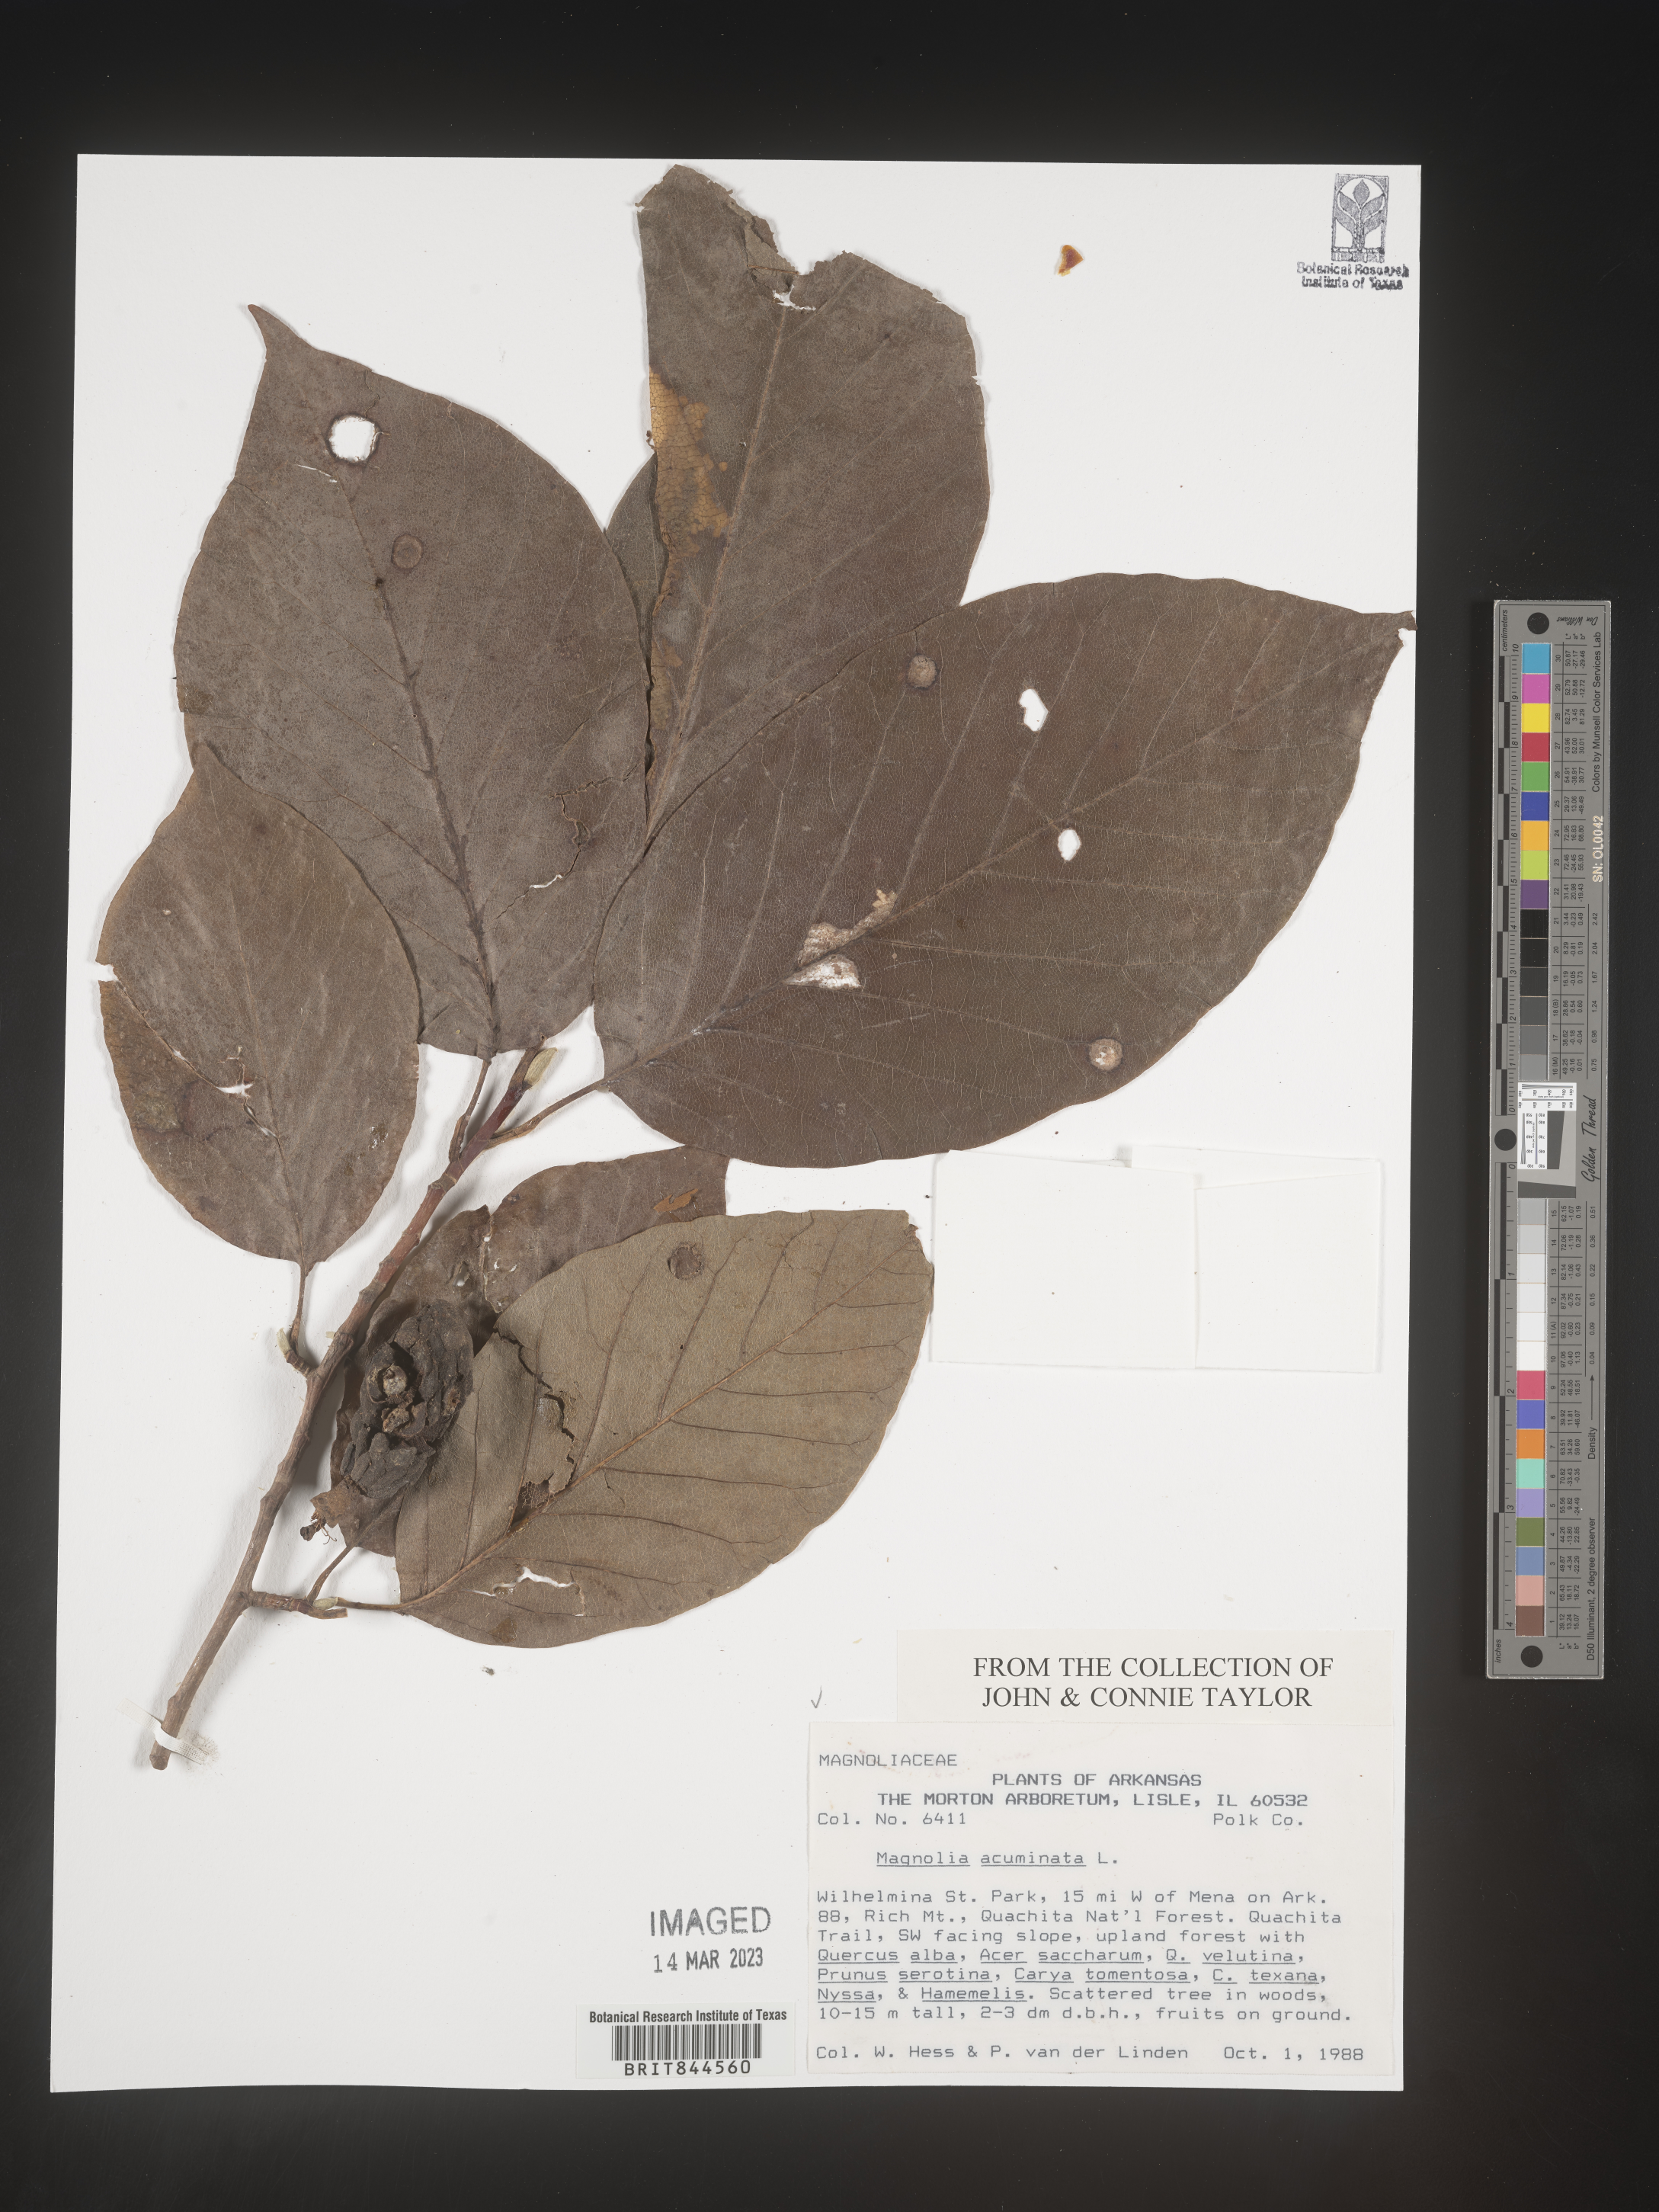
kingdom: Plantae
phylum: Tracheophyta
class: Magnoliopsida
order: Magnoliales
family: Magnoliaceae
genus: Magnolia
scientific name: Magnolia acuminata
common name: Cucumber magnolia
